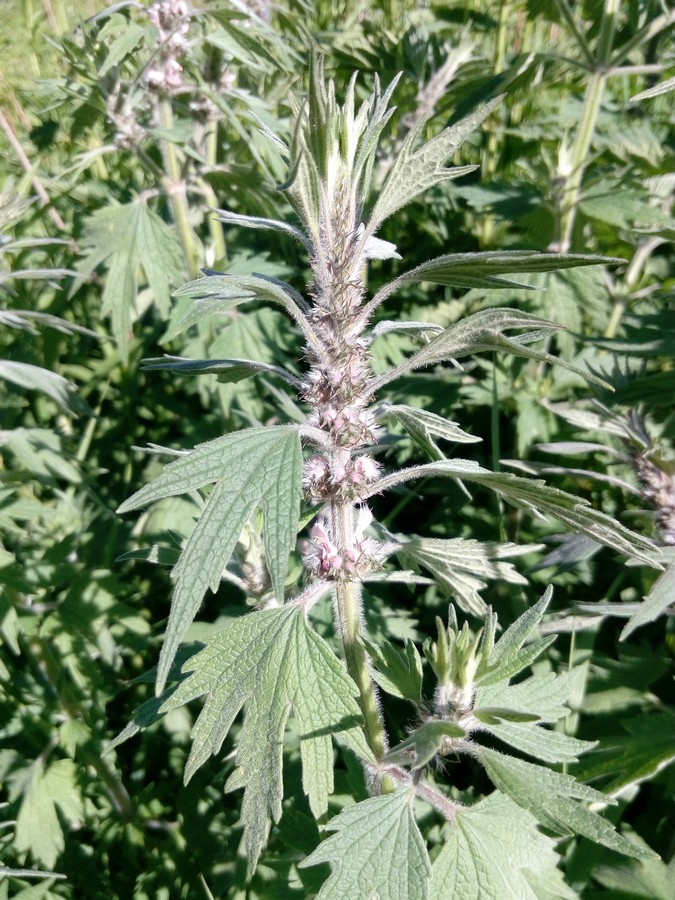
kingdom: Plantae
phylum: Tracheophyta
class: Magnoliopsida
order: Lamiales
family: Lamiaceae
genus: Leonurus
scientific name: Leonurus quinquelobatus
